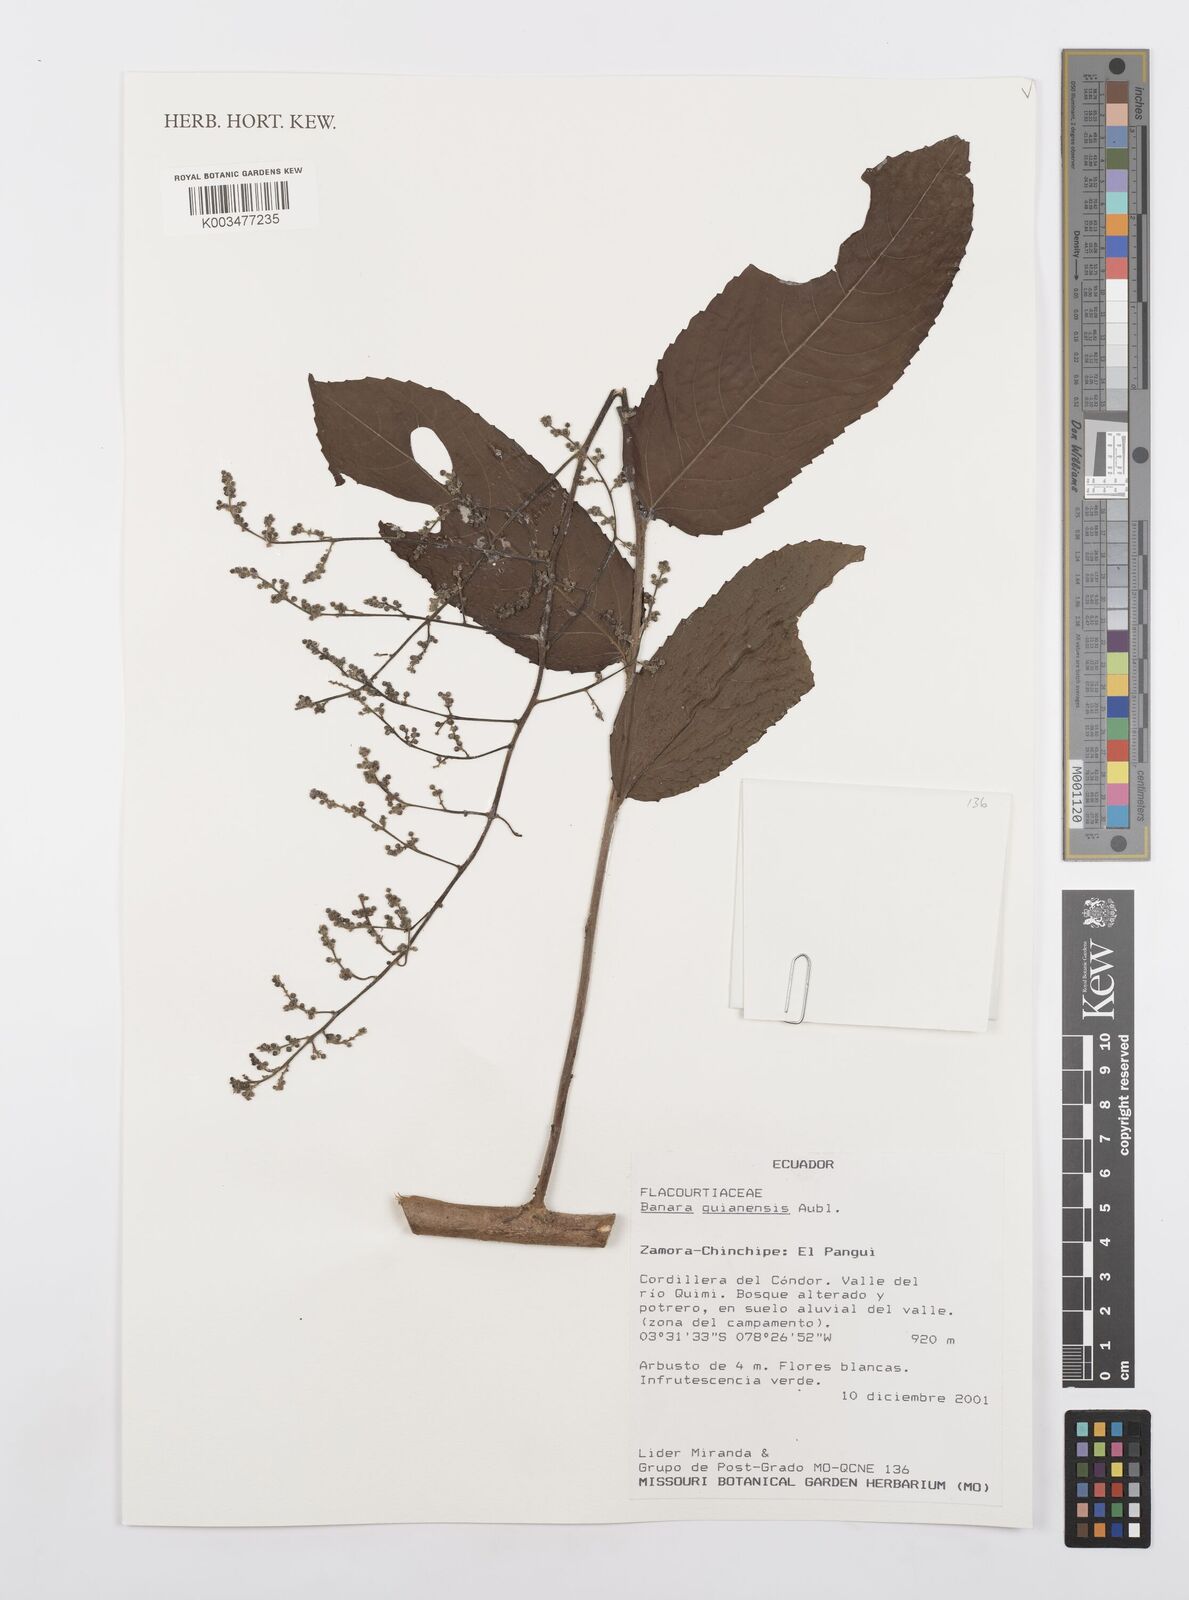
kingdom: Plantae
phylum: Tracheophyta
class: Magnoliopsida
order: Malpighiales
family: Salicaceae
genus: Banara
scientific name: Banara guianensis
